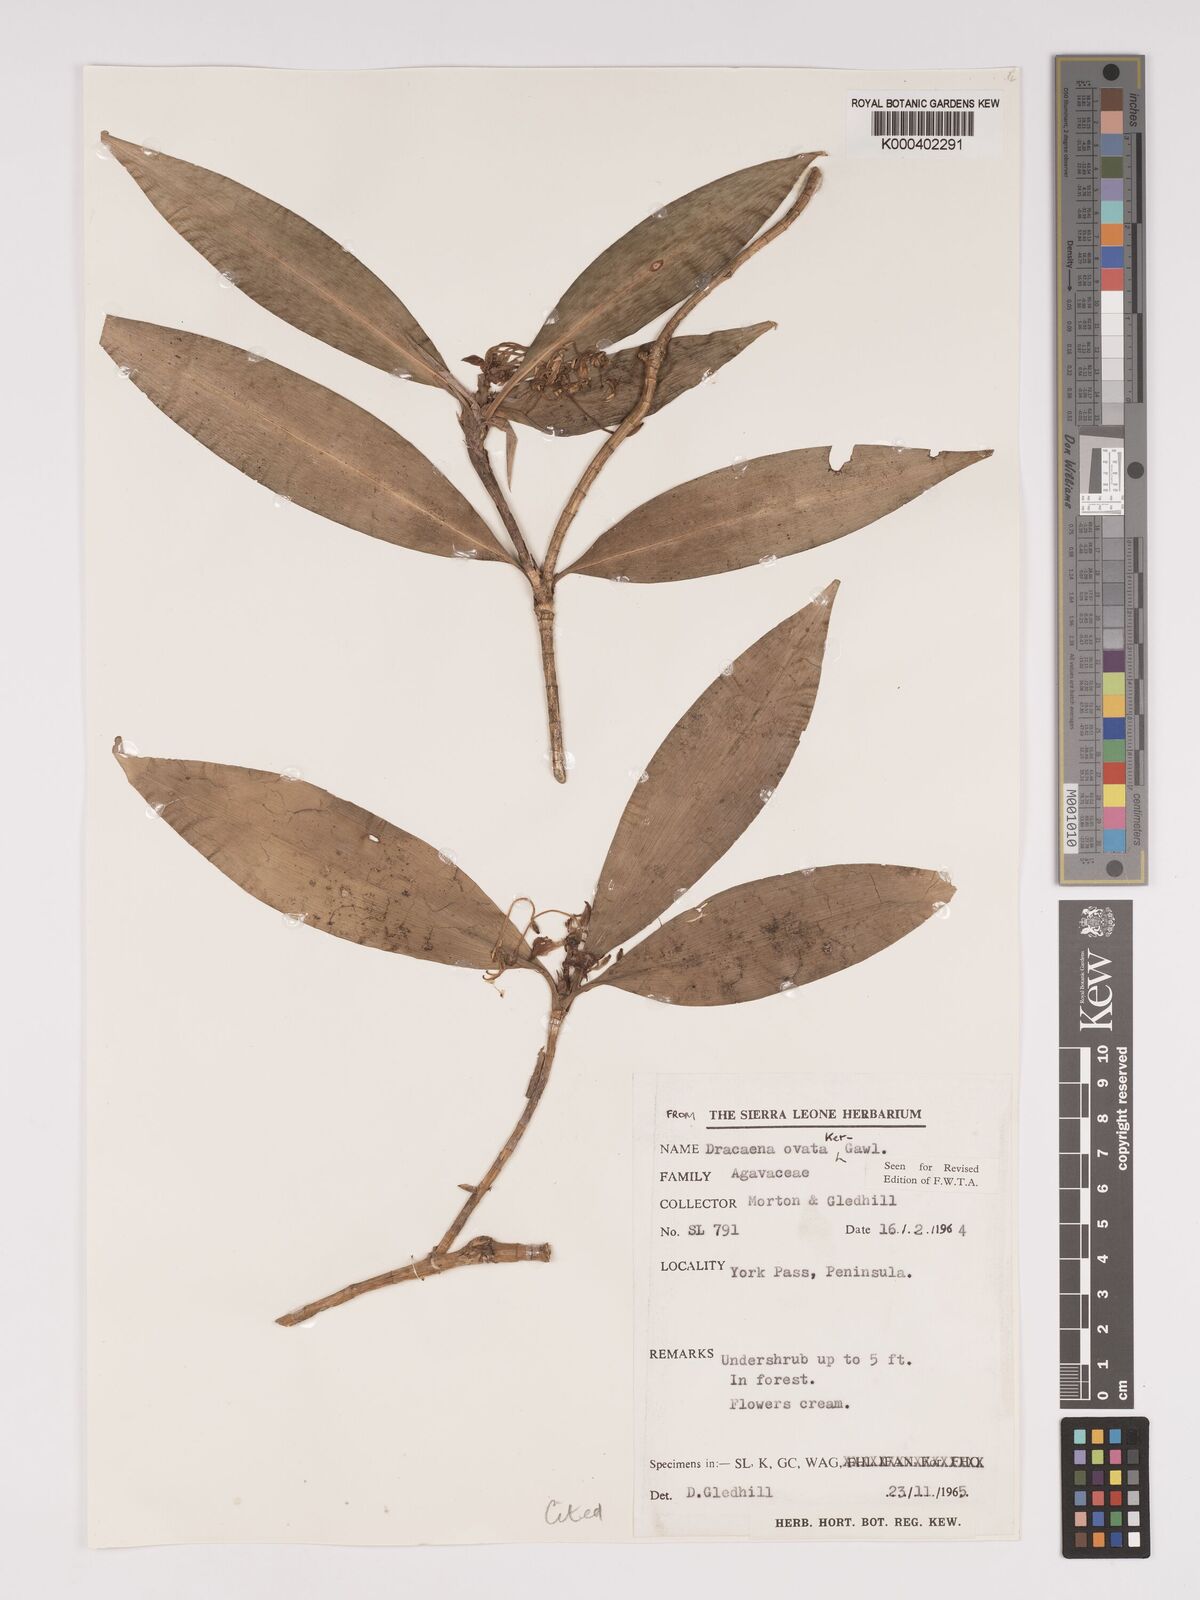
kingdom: Plantae
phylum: Tracheophyta
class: Liliopsida
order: Asparagales
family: Asparagaceae
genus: Dracaena
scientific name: Dracaena ovata
